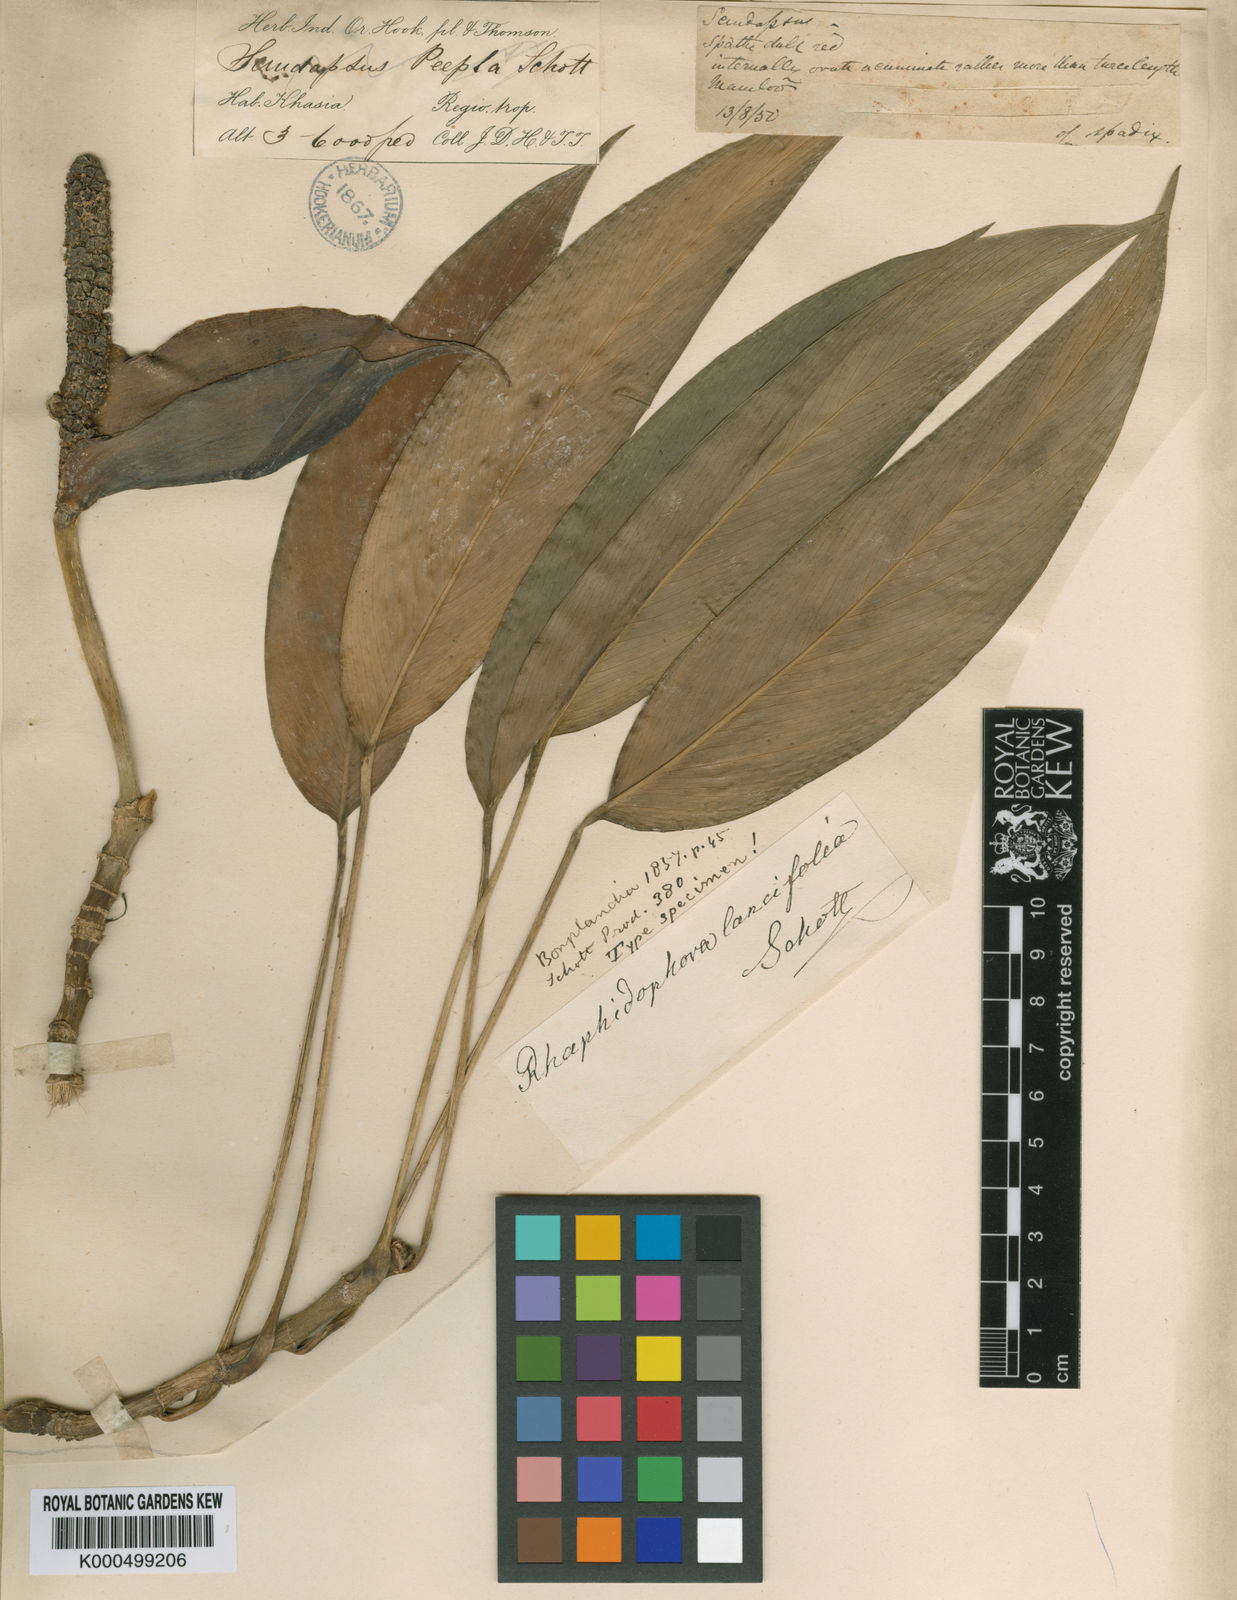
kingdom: Plantae
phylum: Tracheophyta
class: Liliopsida
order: Alismatales
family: Araceae
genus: Rhaphidophora
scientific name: Rhaphidophora peepla
